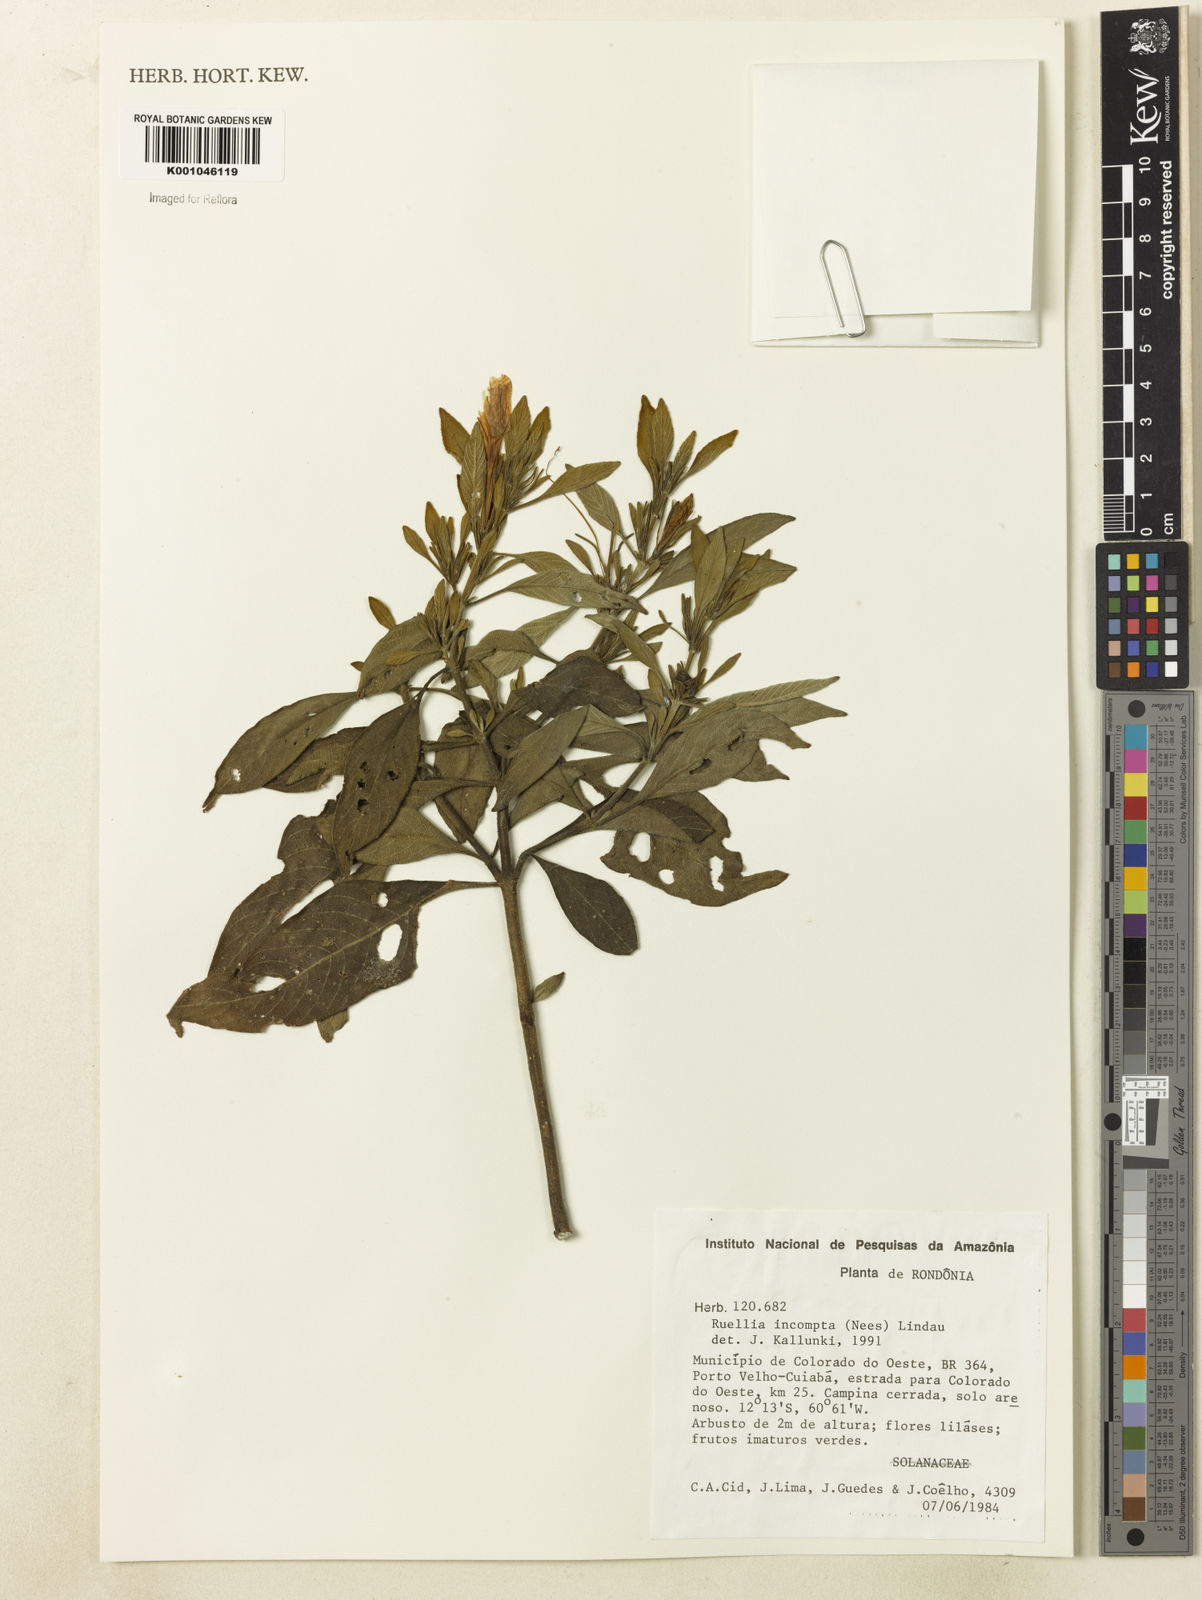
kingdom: Plantae
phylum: Tracheophyta
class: Magnoliopsida
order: Lamiales
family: Acanthaceae
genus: Ruellia
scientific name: Ruellia
